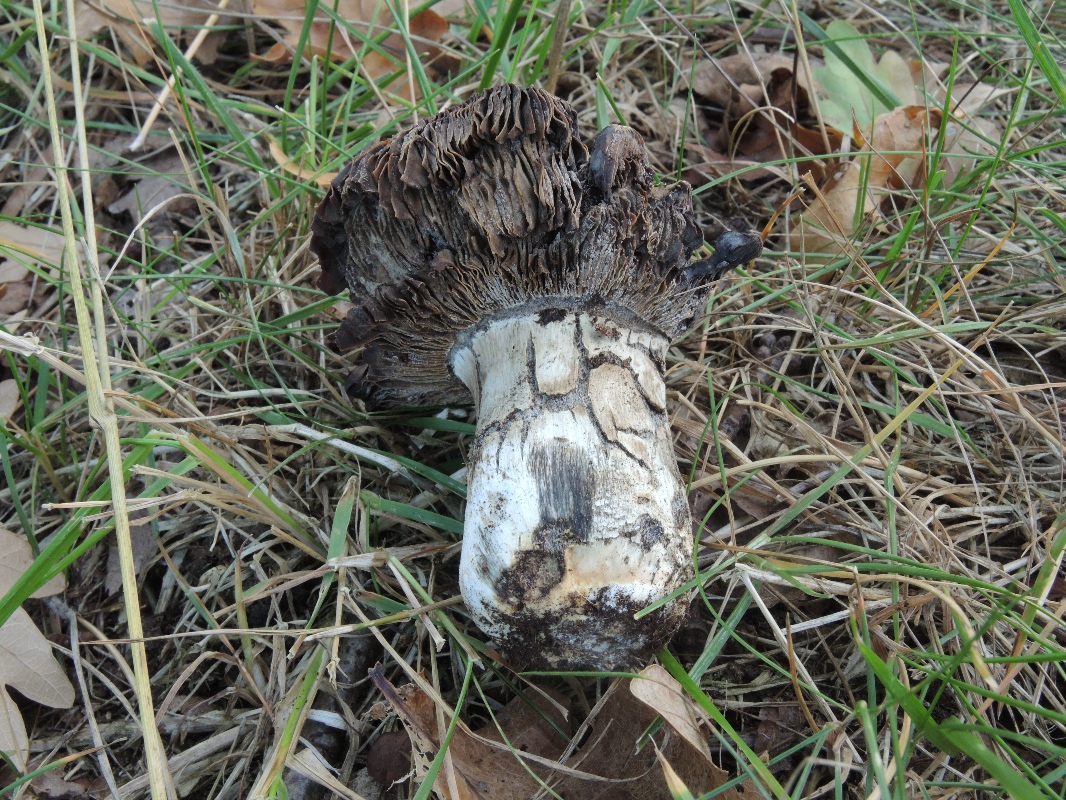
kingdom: Fungi
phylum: Basidiomycota
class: Agaricomycetes
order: Russulales
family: Russulaceae
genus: Russula
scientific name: Russula seperina
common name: rødmende skørhat
